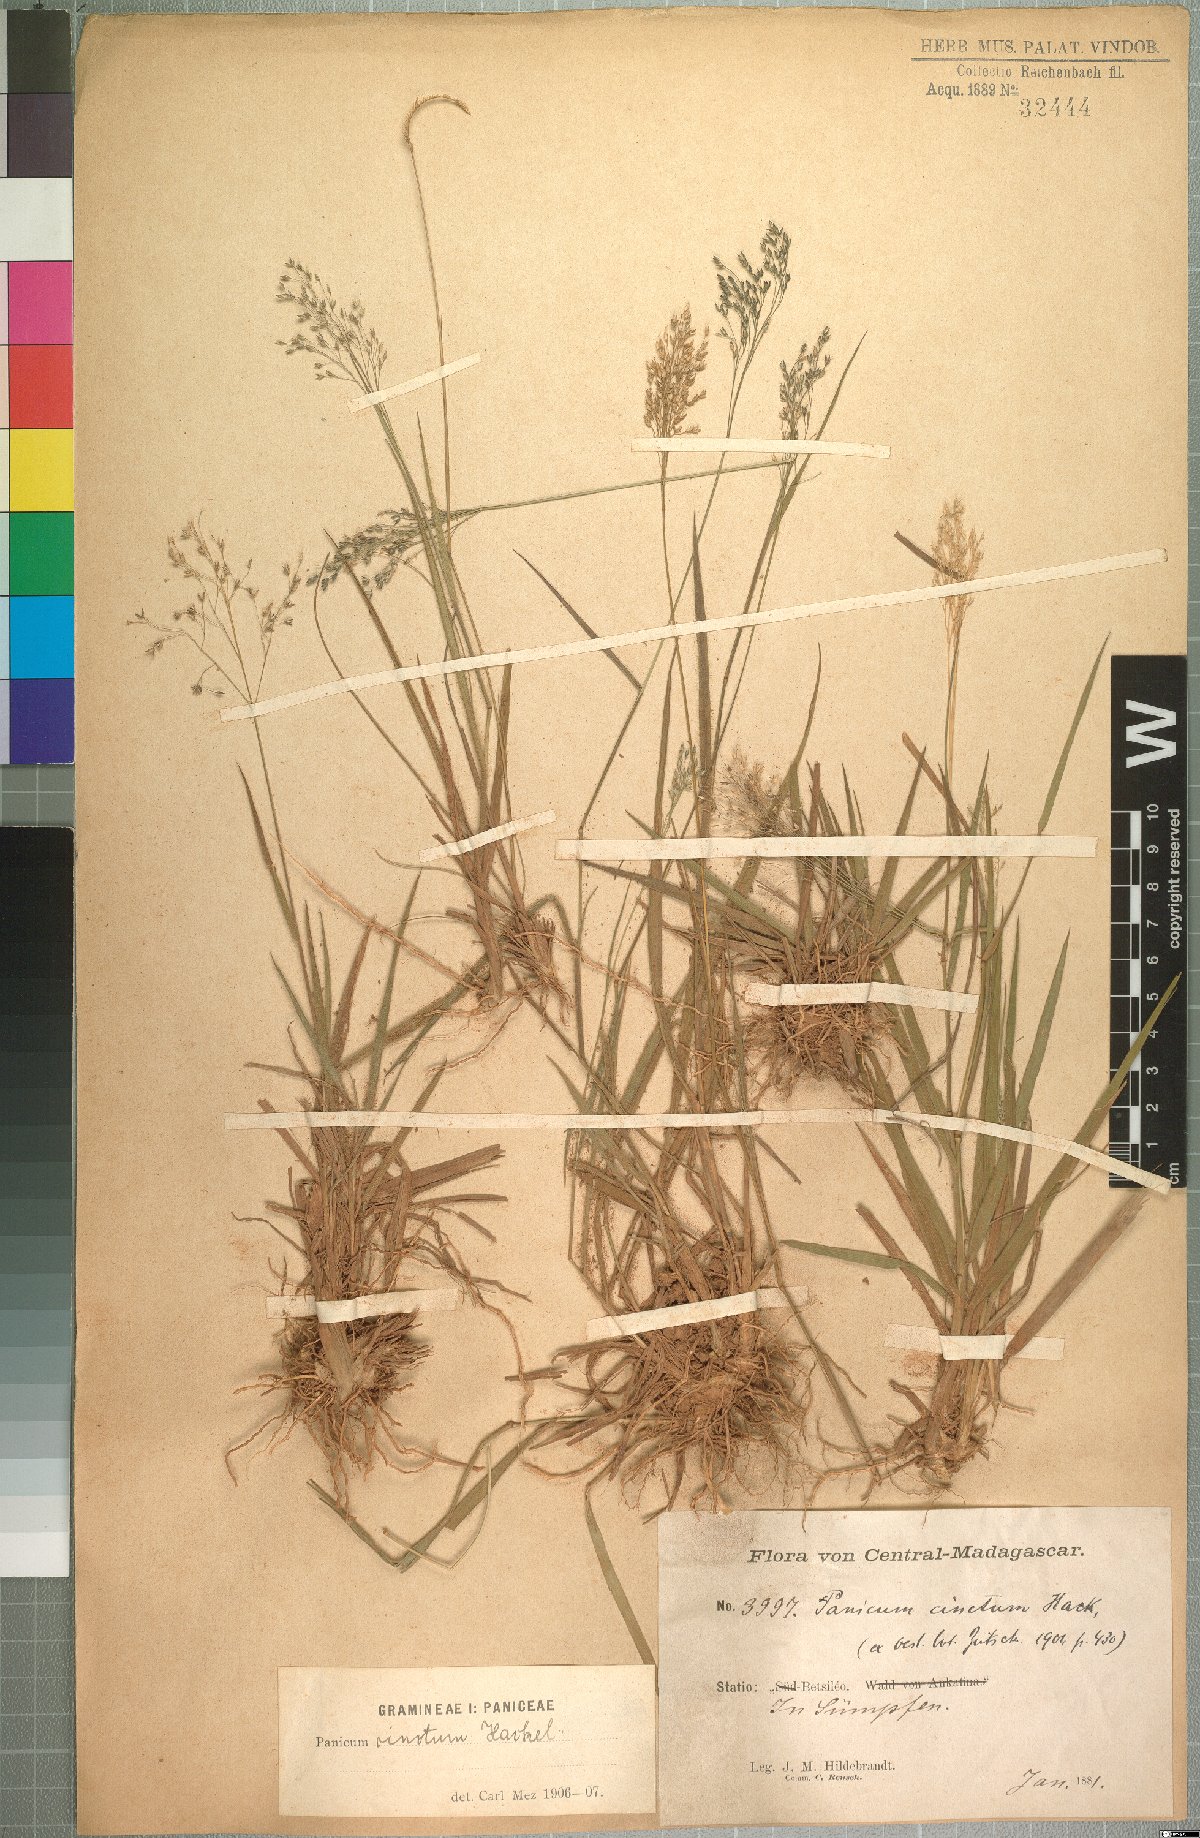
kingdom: Plantae
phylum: Tracheophyta
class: Liliopsida
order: Poales
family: Poaceae
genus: Panicum
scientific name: Panicum cinctum
